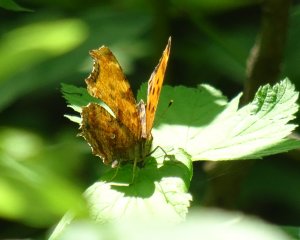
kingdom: Animalia
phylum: Arthropoda
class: Insecta
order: Lepidoptera
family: Nymphalidae
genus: Polygonia
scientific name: Polygonia comma
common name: Eastern Comma
